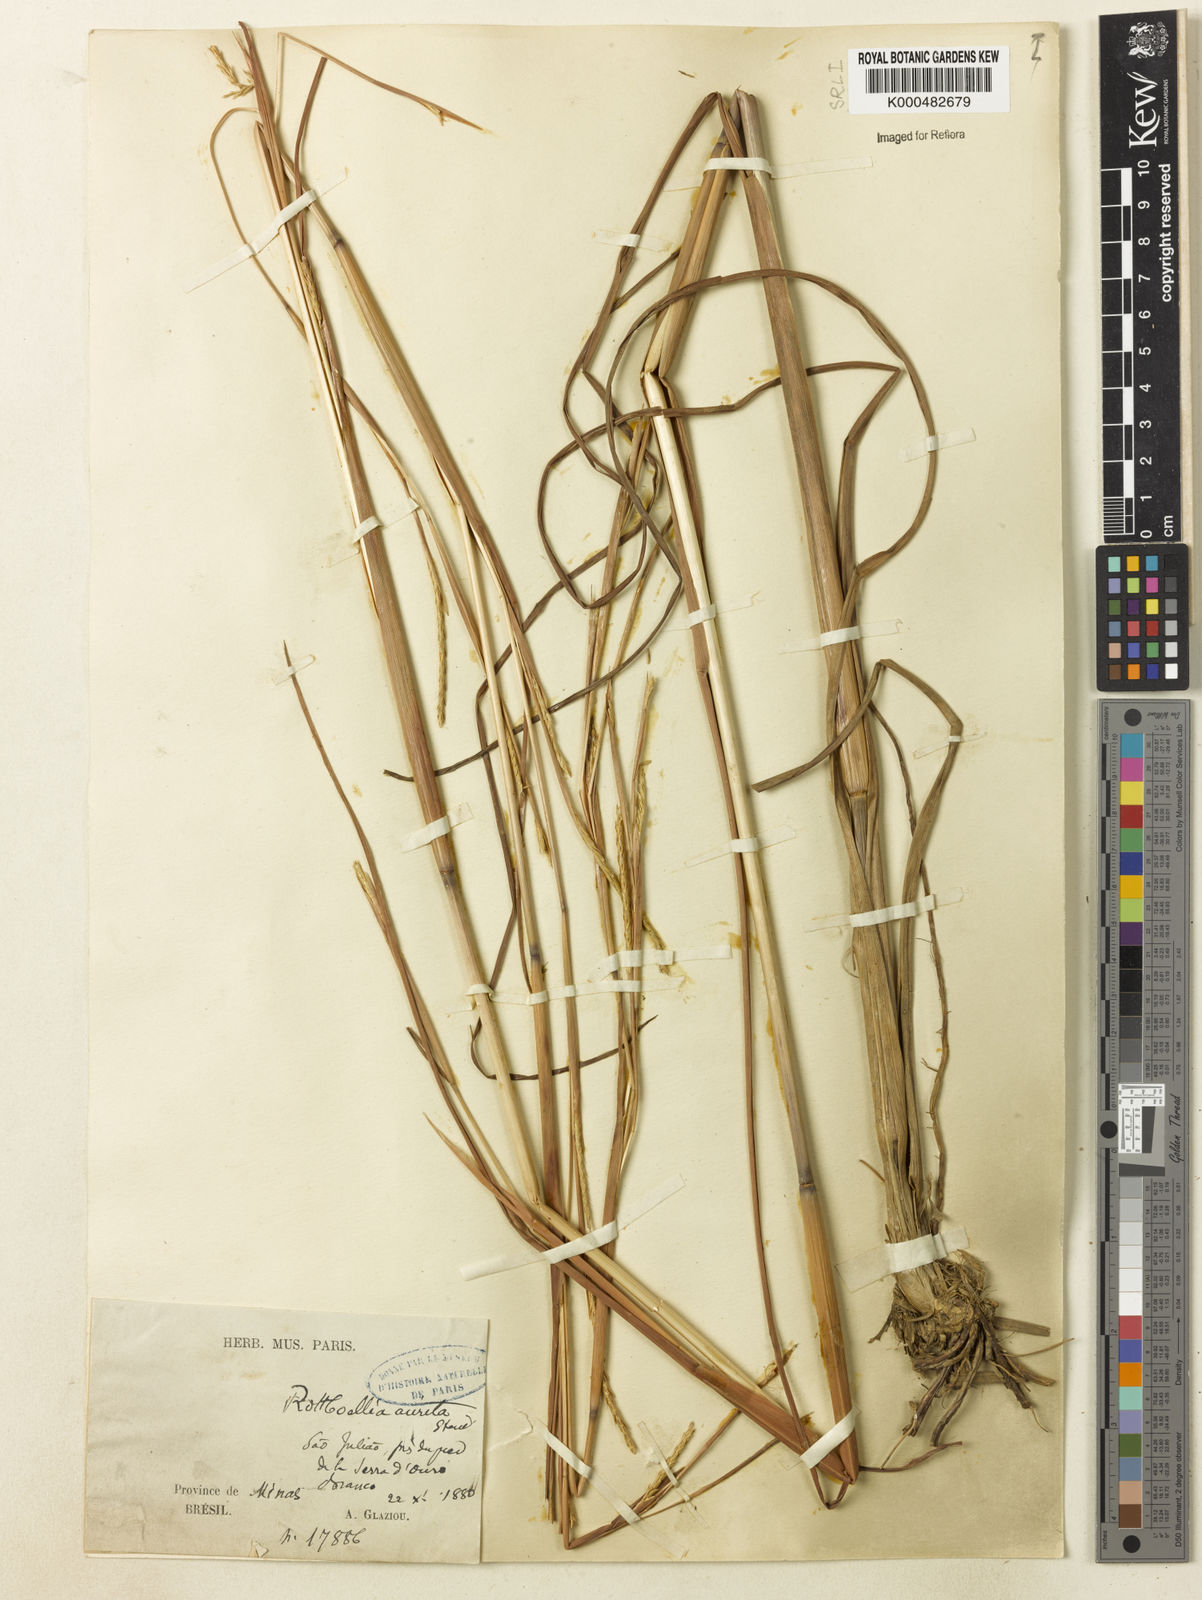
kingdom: Plantae
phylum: Tracheophyta
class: Liliopsida
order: Poales
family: Poaceae
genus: Rottboellia
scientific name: Rottboellia aurita
